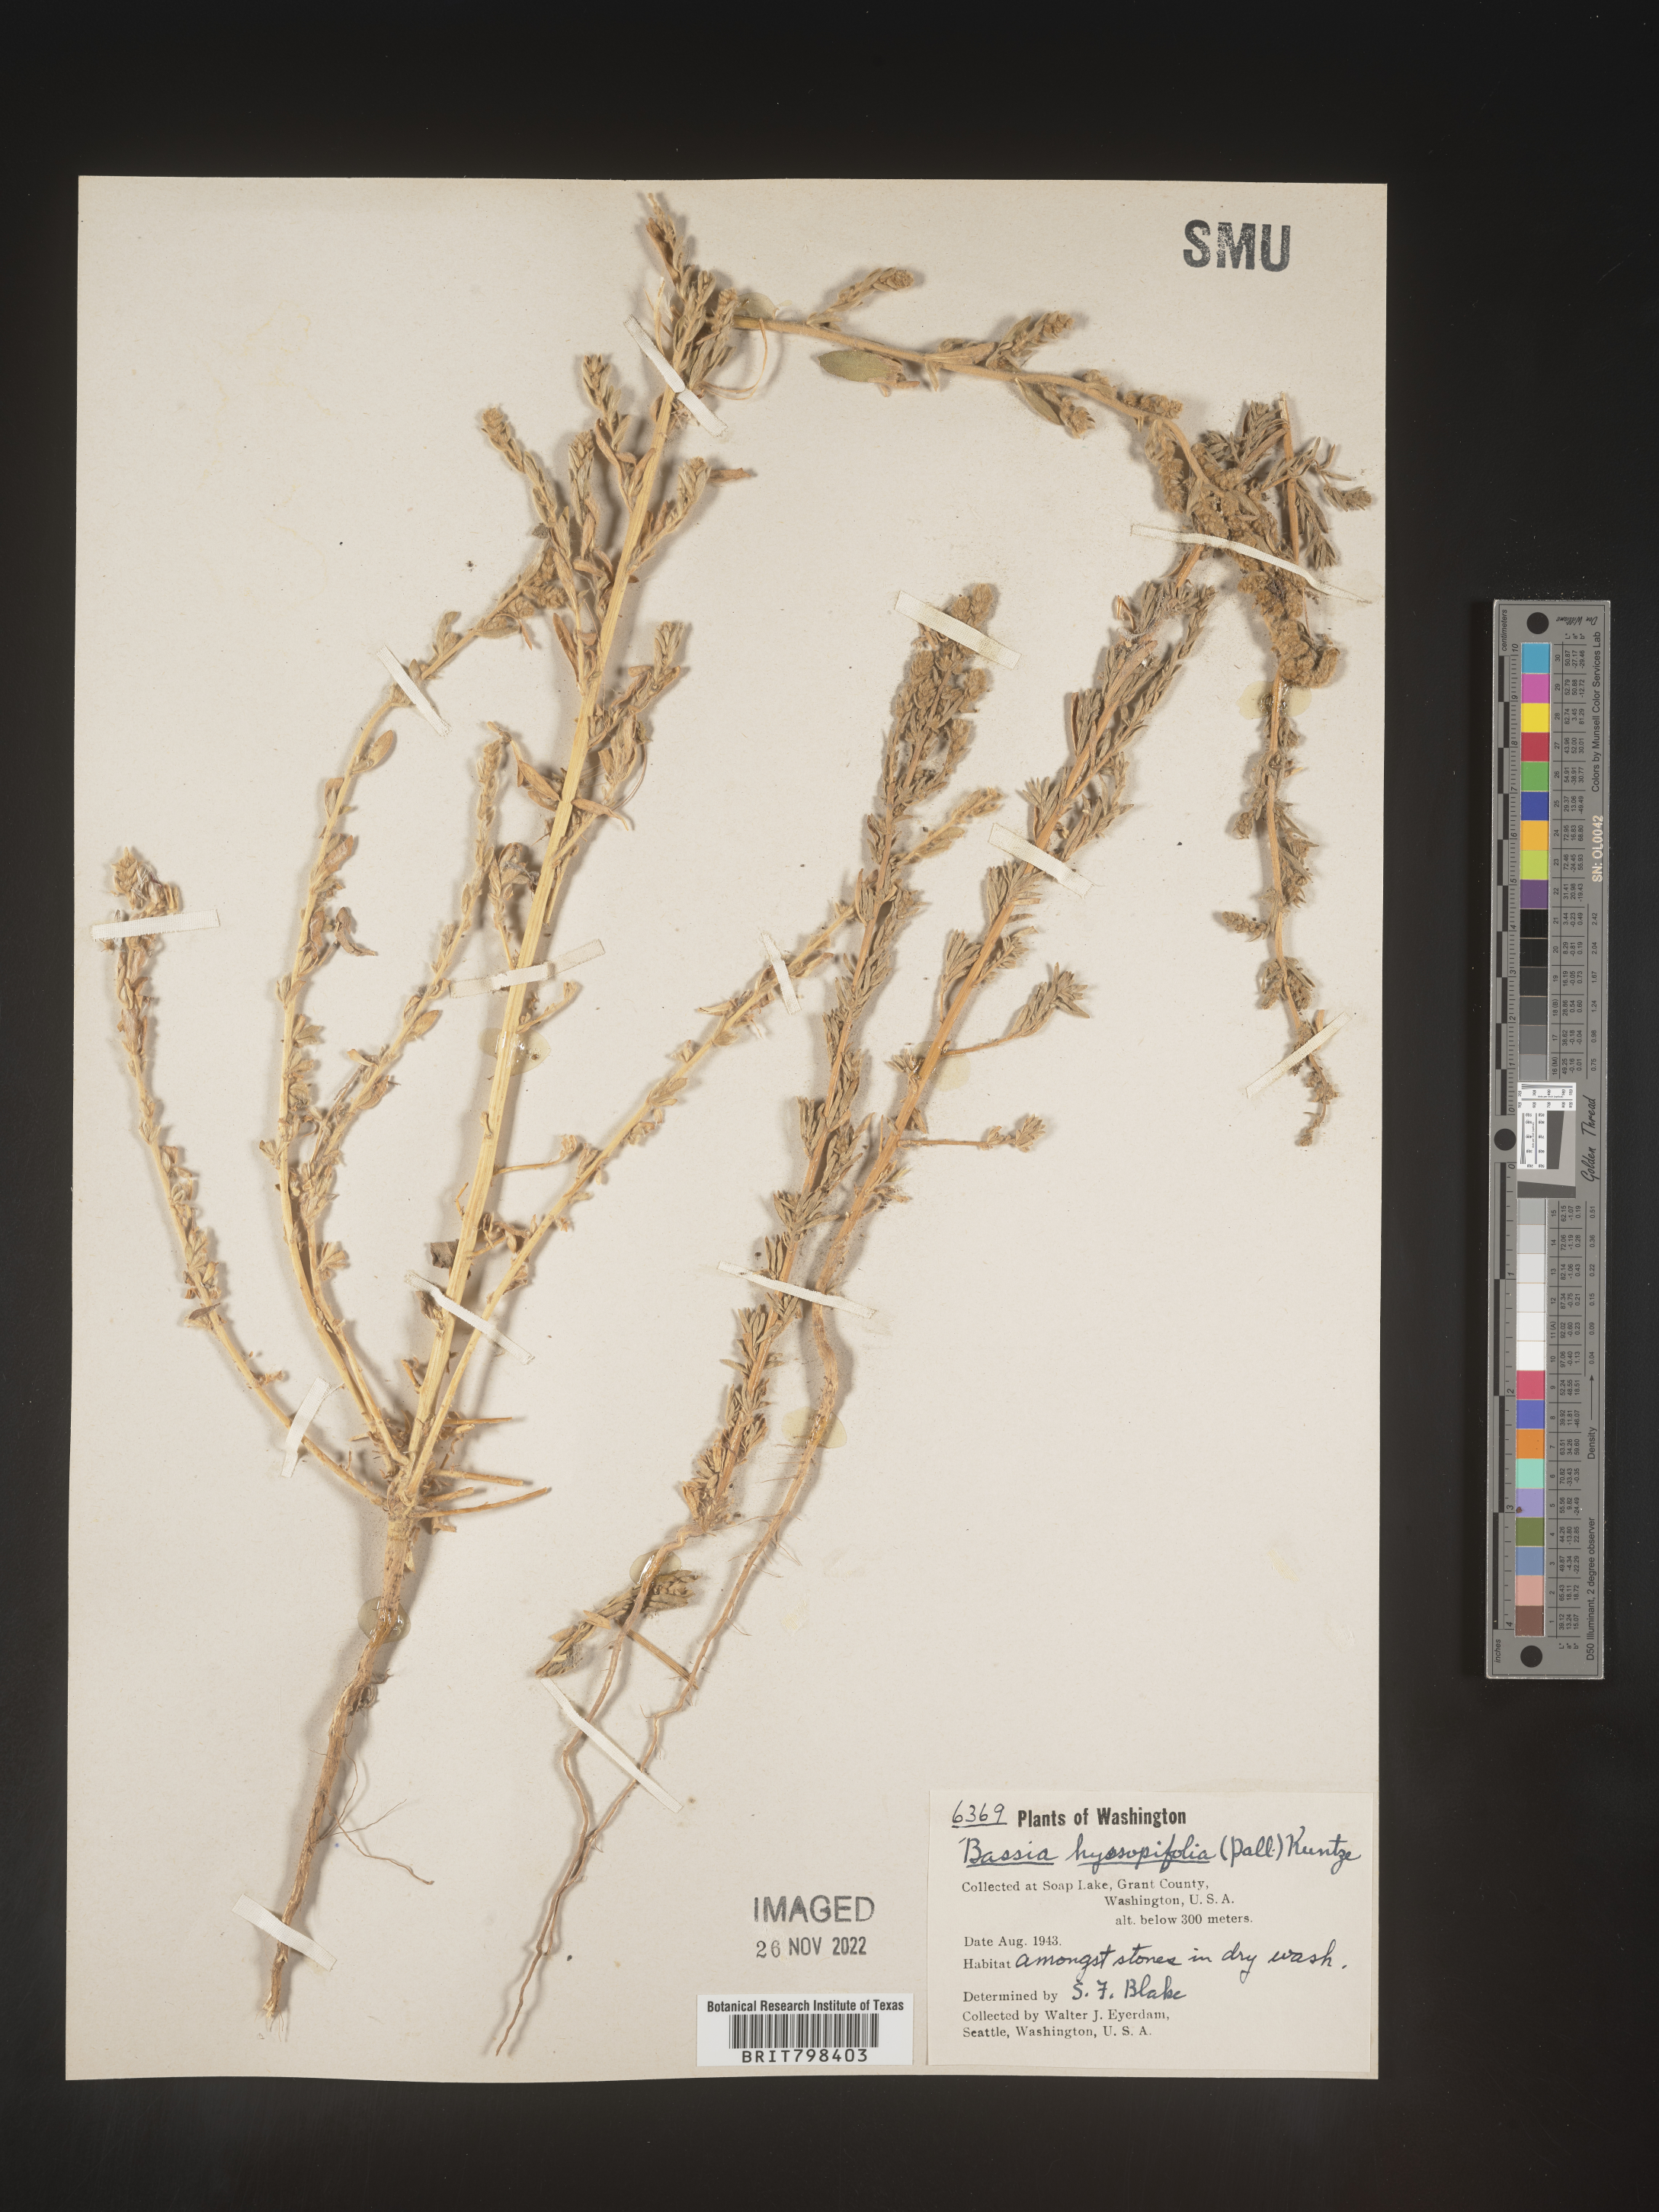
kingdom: Plantae
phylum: Tracheophyta
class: Magnoliopsida
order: Caryophyllales
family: Amaranthaceae
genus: Bassia
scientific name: Bassia scoparia
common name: Belvedere
